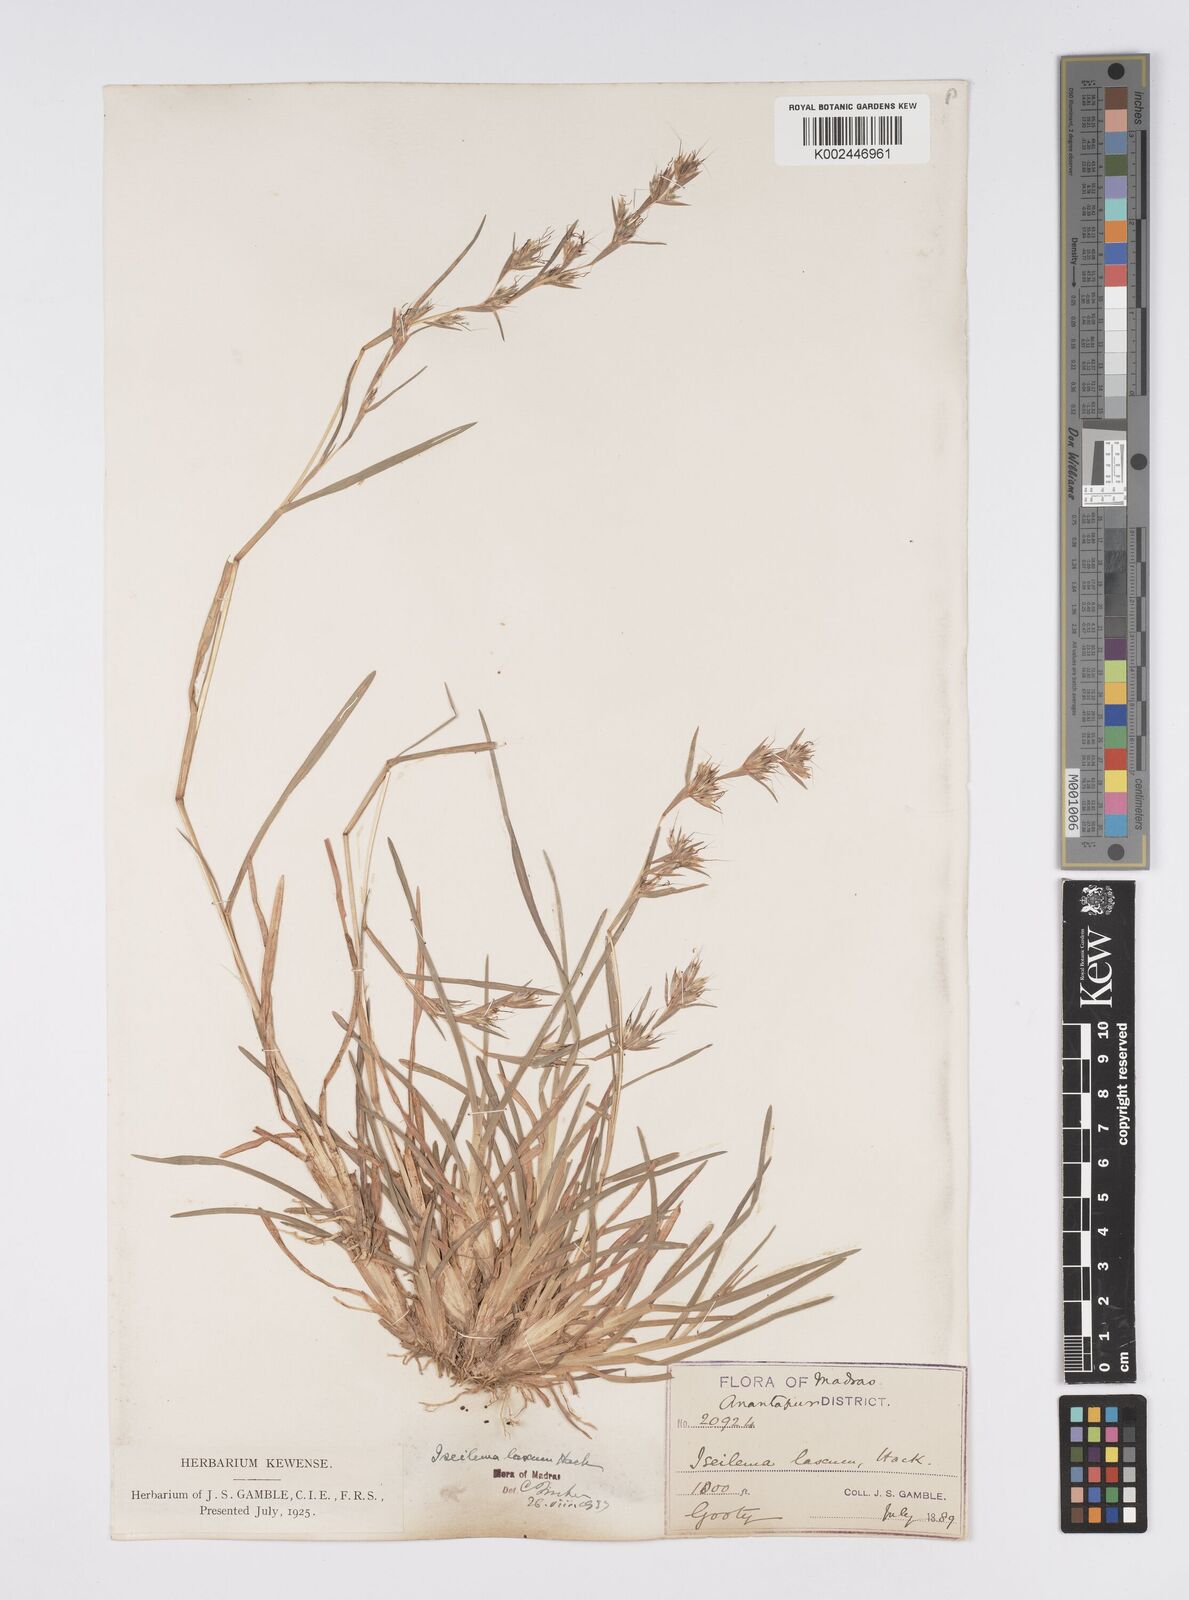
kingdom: Plantae
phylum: Tracheophyta
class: Liliopsida
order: Poales
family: Poaceae
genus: Iseilema
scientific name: Iseilema prostratum
